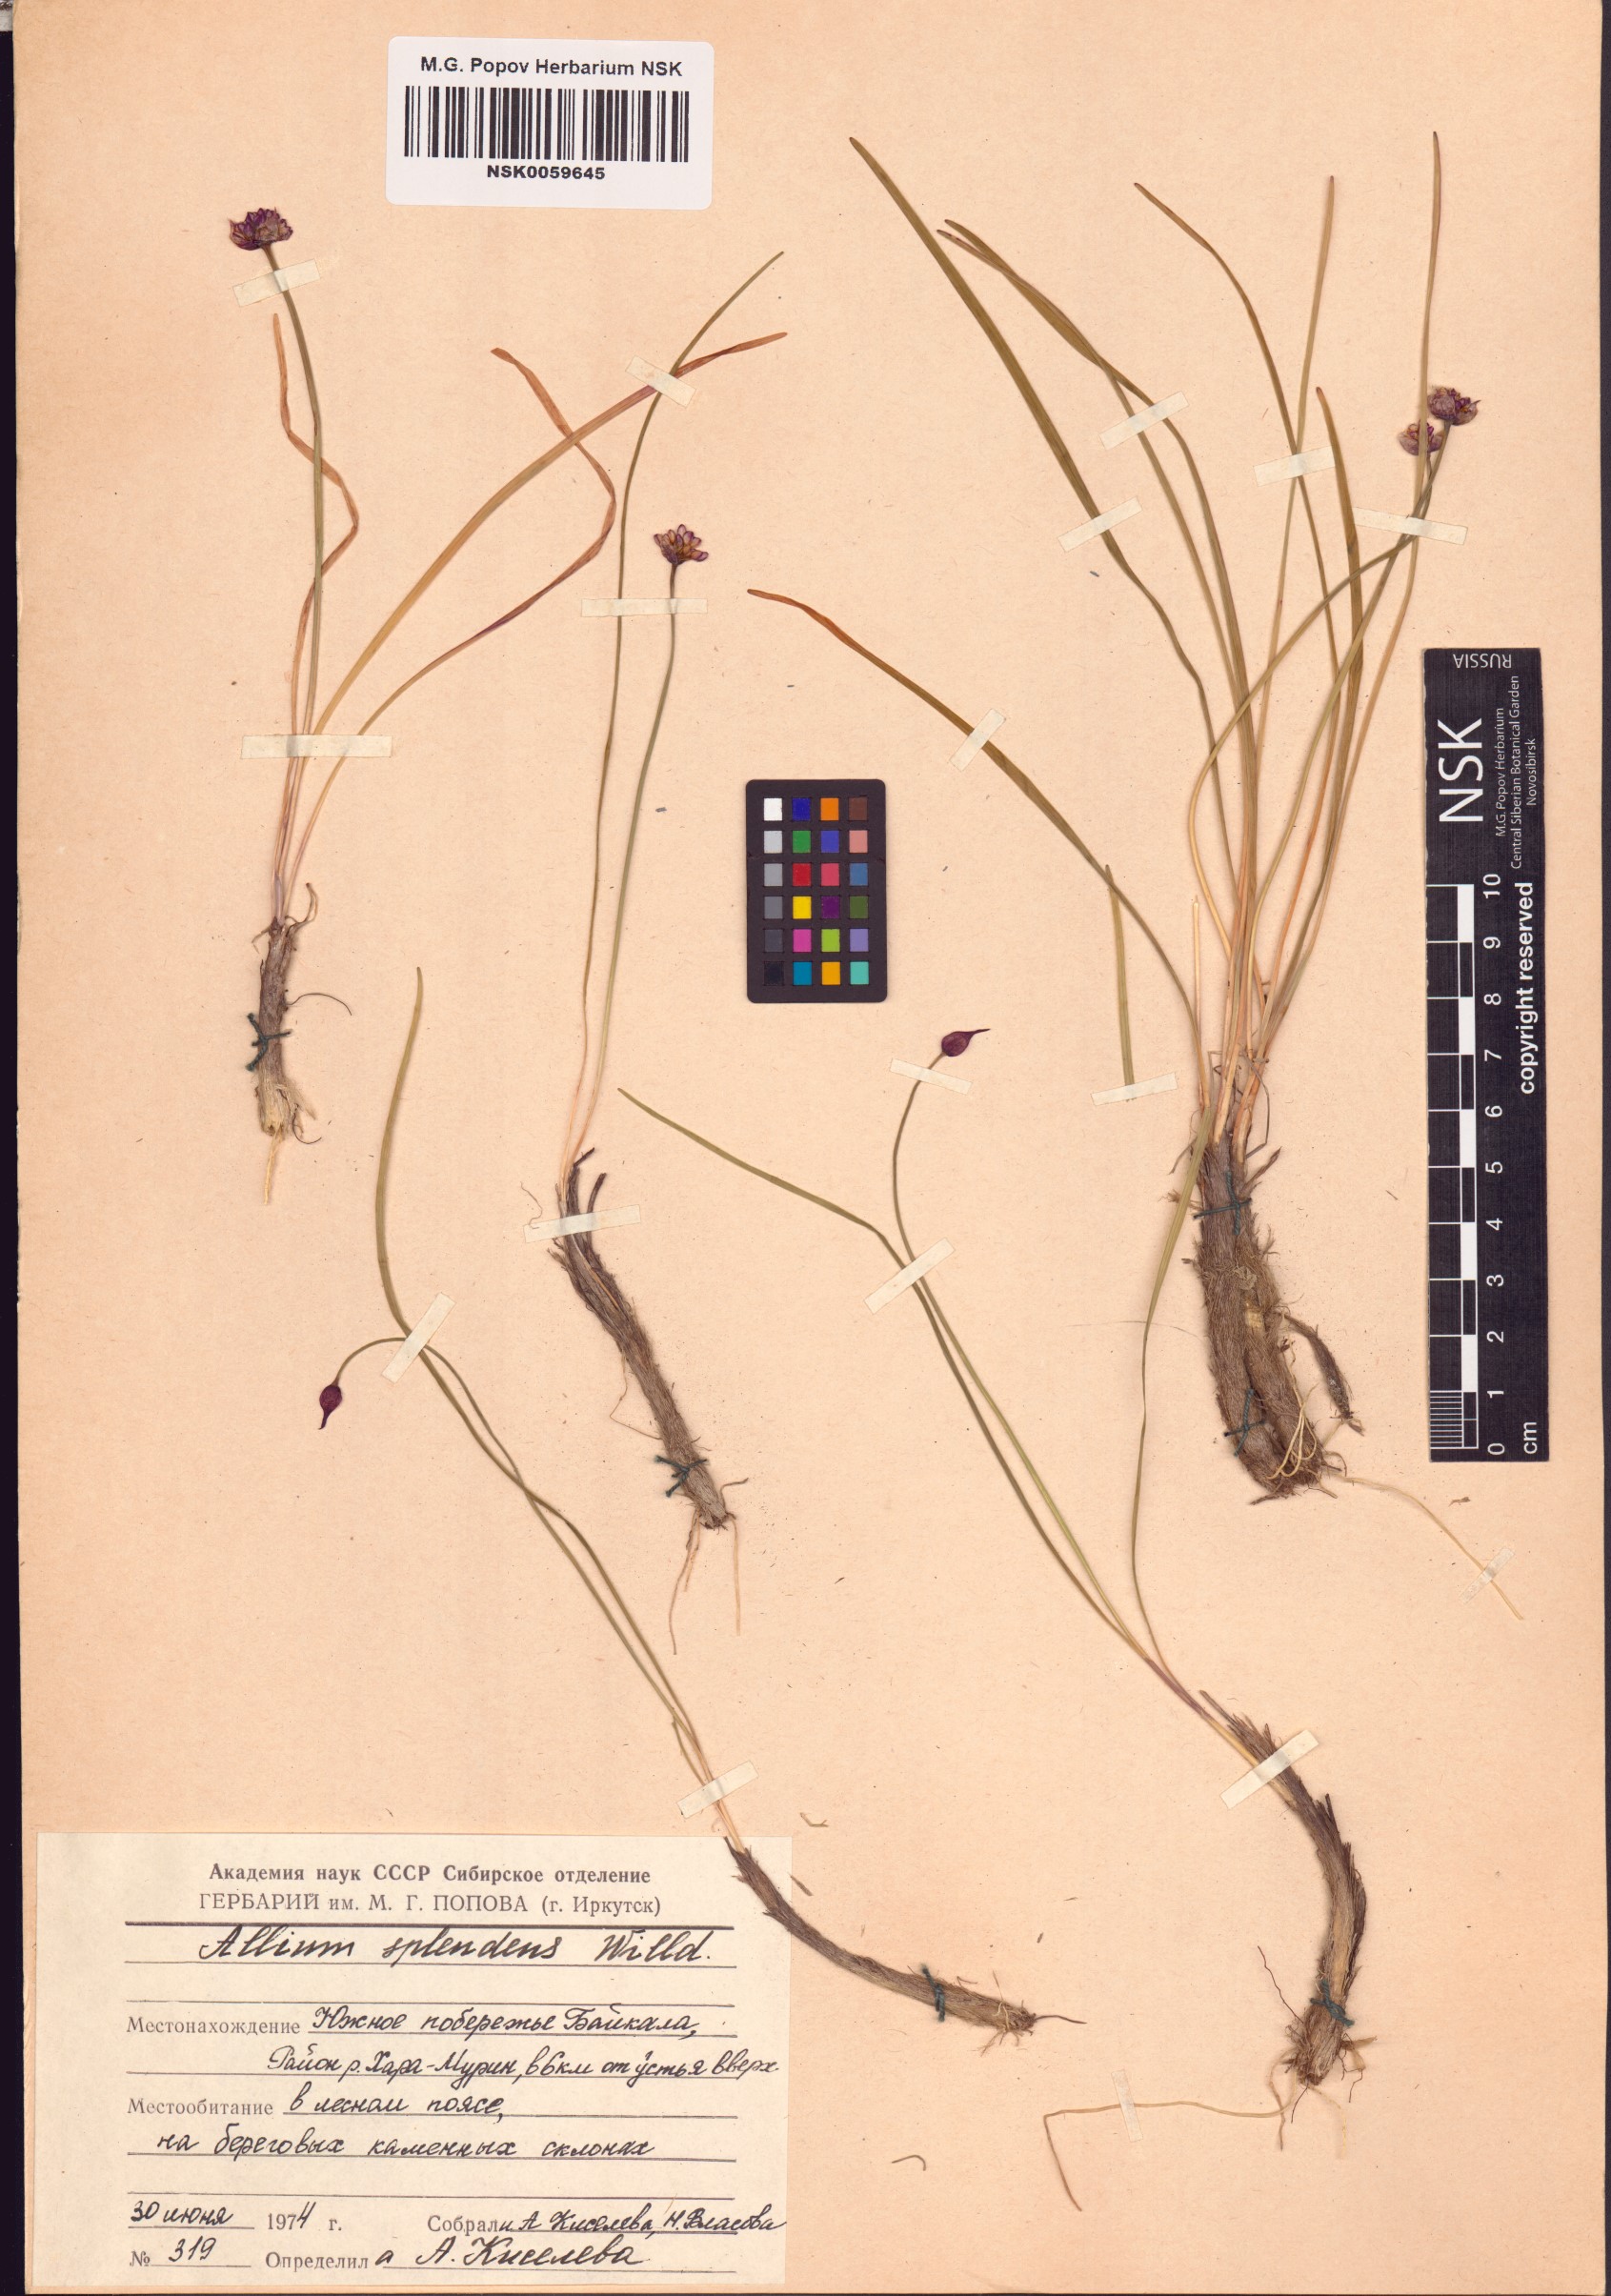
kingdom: Plantae
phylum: Tracheophyta
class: Liliopsida
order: Asparagales
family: Amaryllidaceae
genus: Allium
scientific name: Allium splendens
